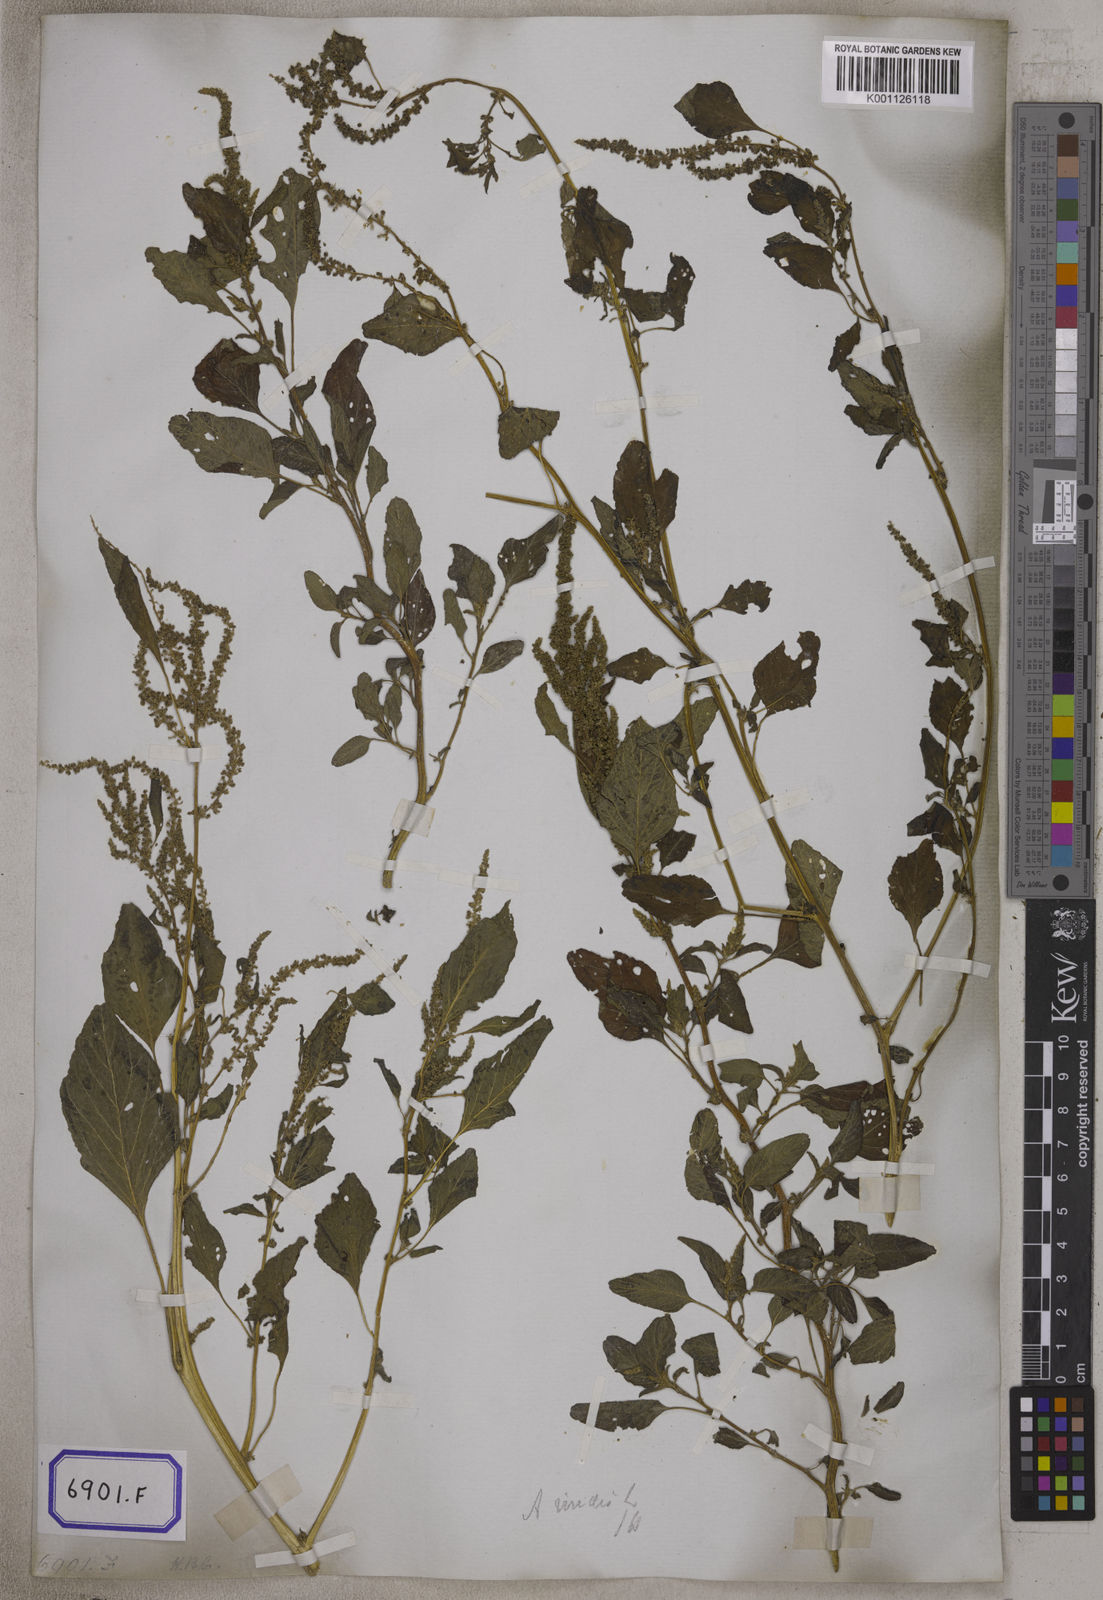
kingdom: Plantae
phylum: Tracheophyta
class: Magnoliopsida
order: Caryophyllales
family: Amaranthaceae
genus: Amaranthus
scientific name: Amaranthus
